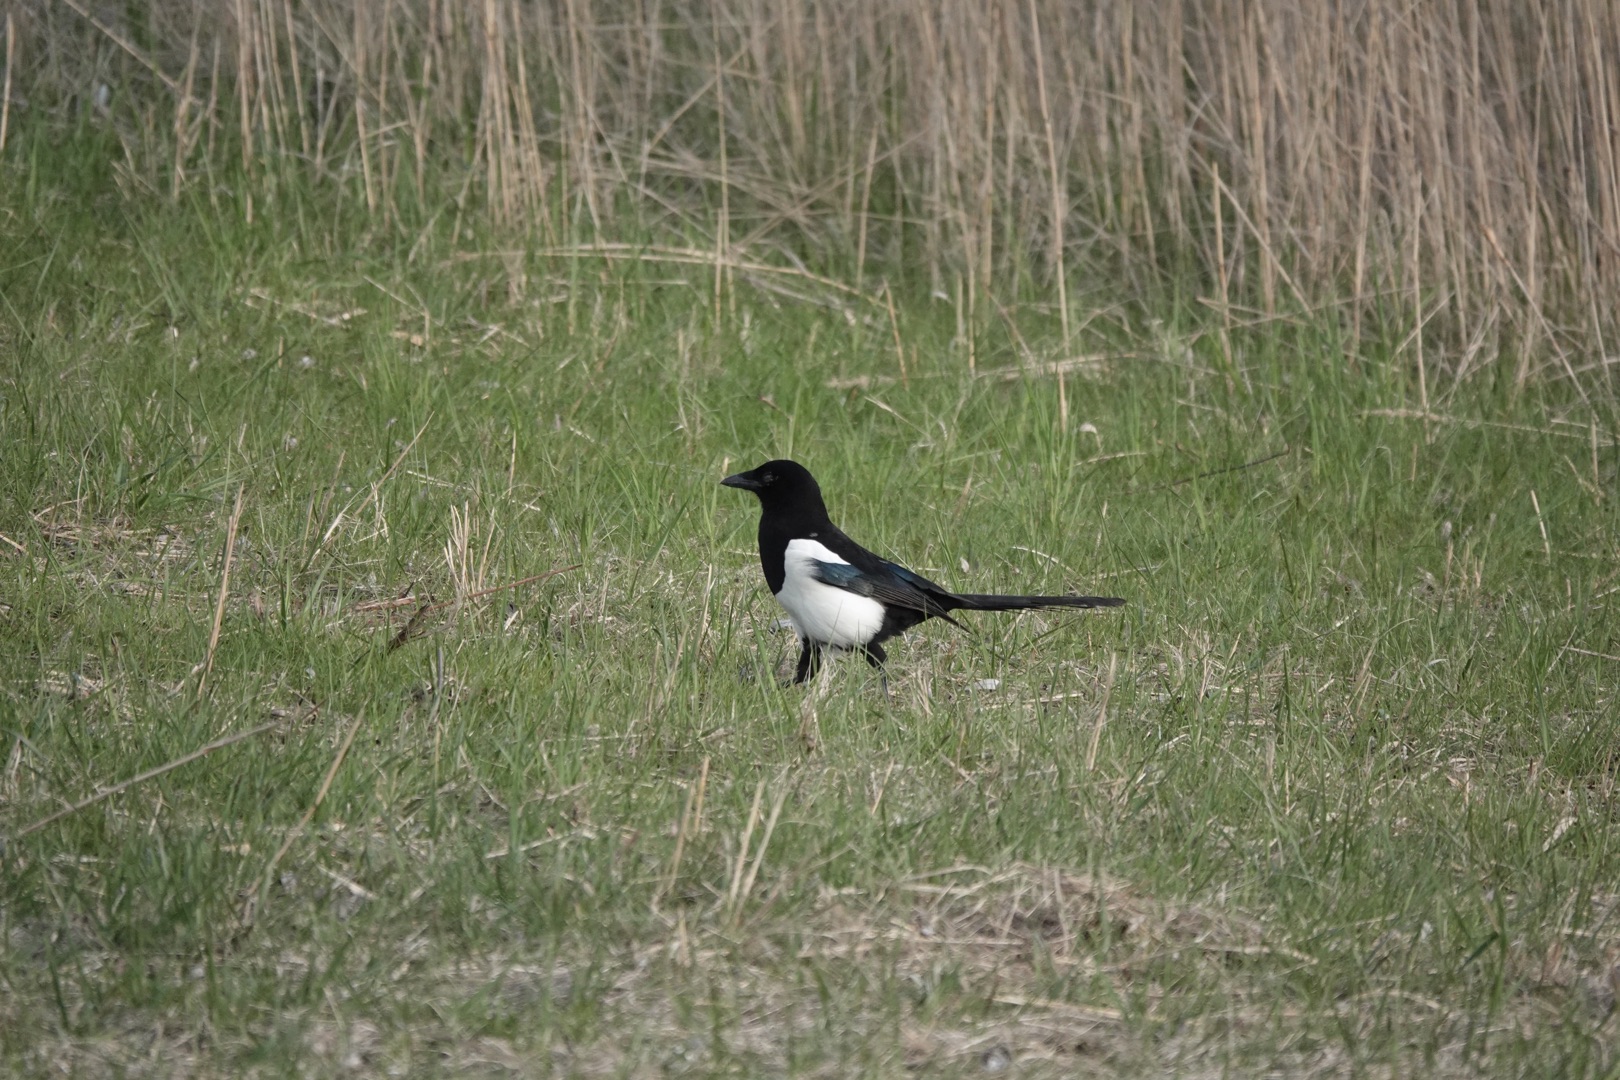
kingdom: Animalia
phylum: Chordata
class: Aves
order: Passeriformes
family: Corvidae
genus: Pica
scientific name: Pica pica
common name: Husskade
